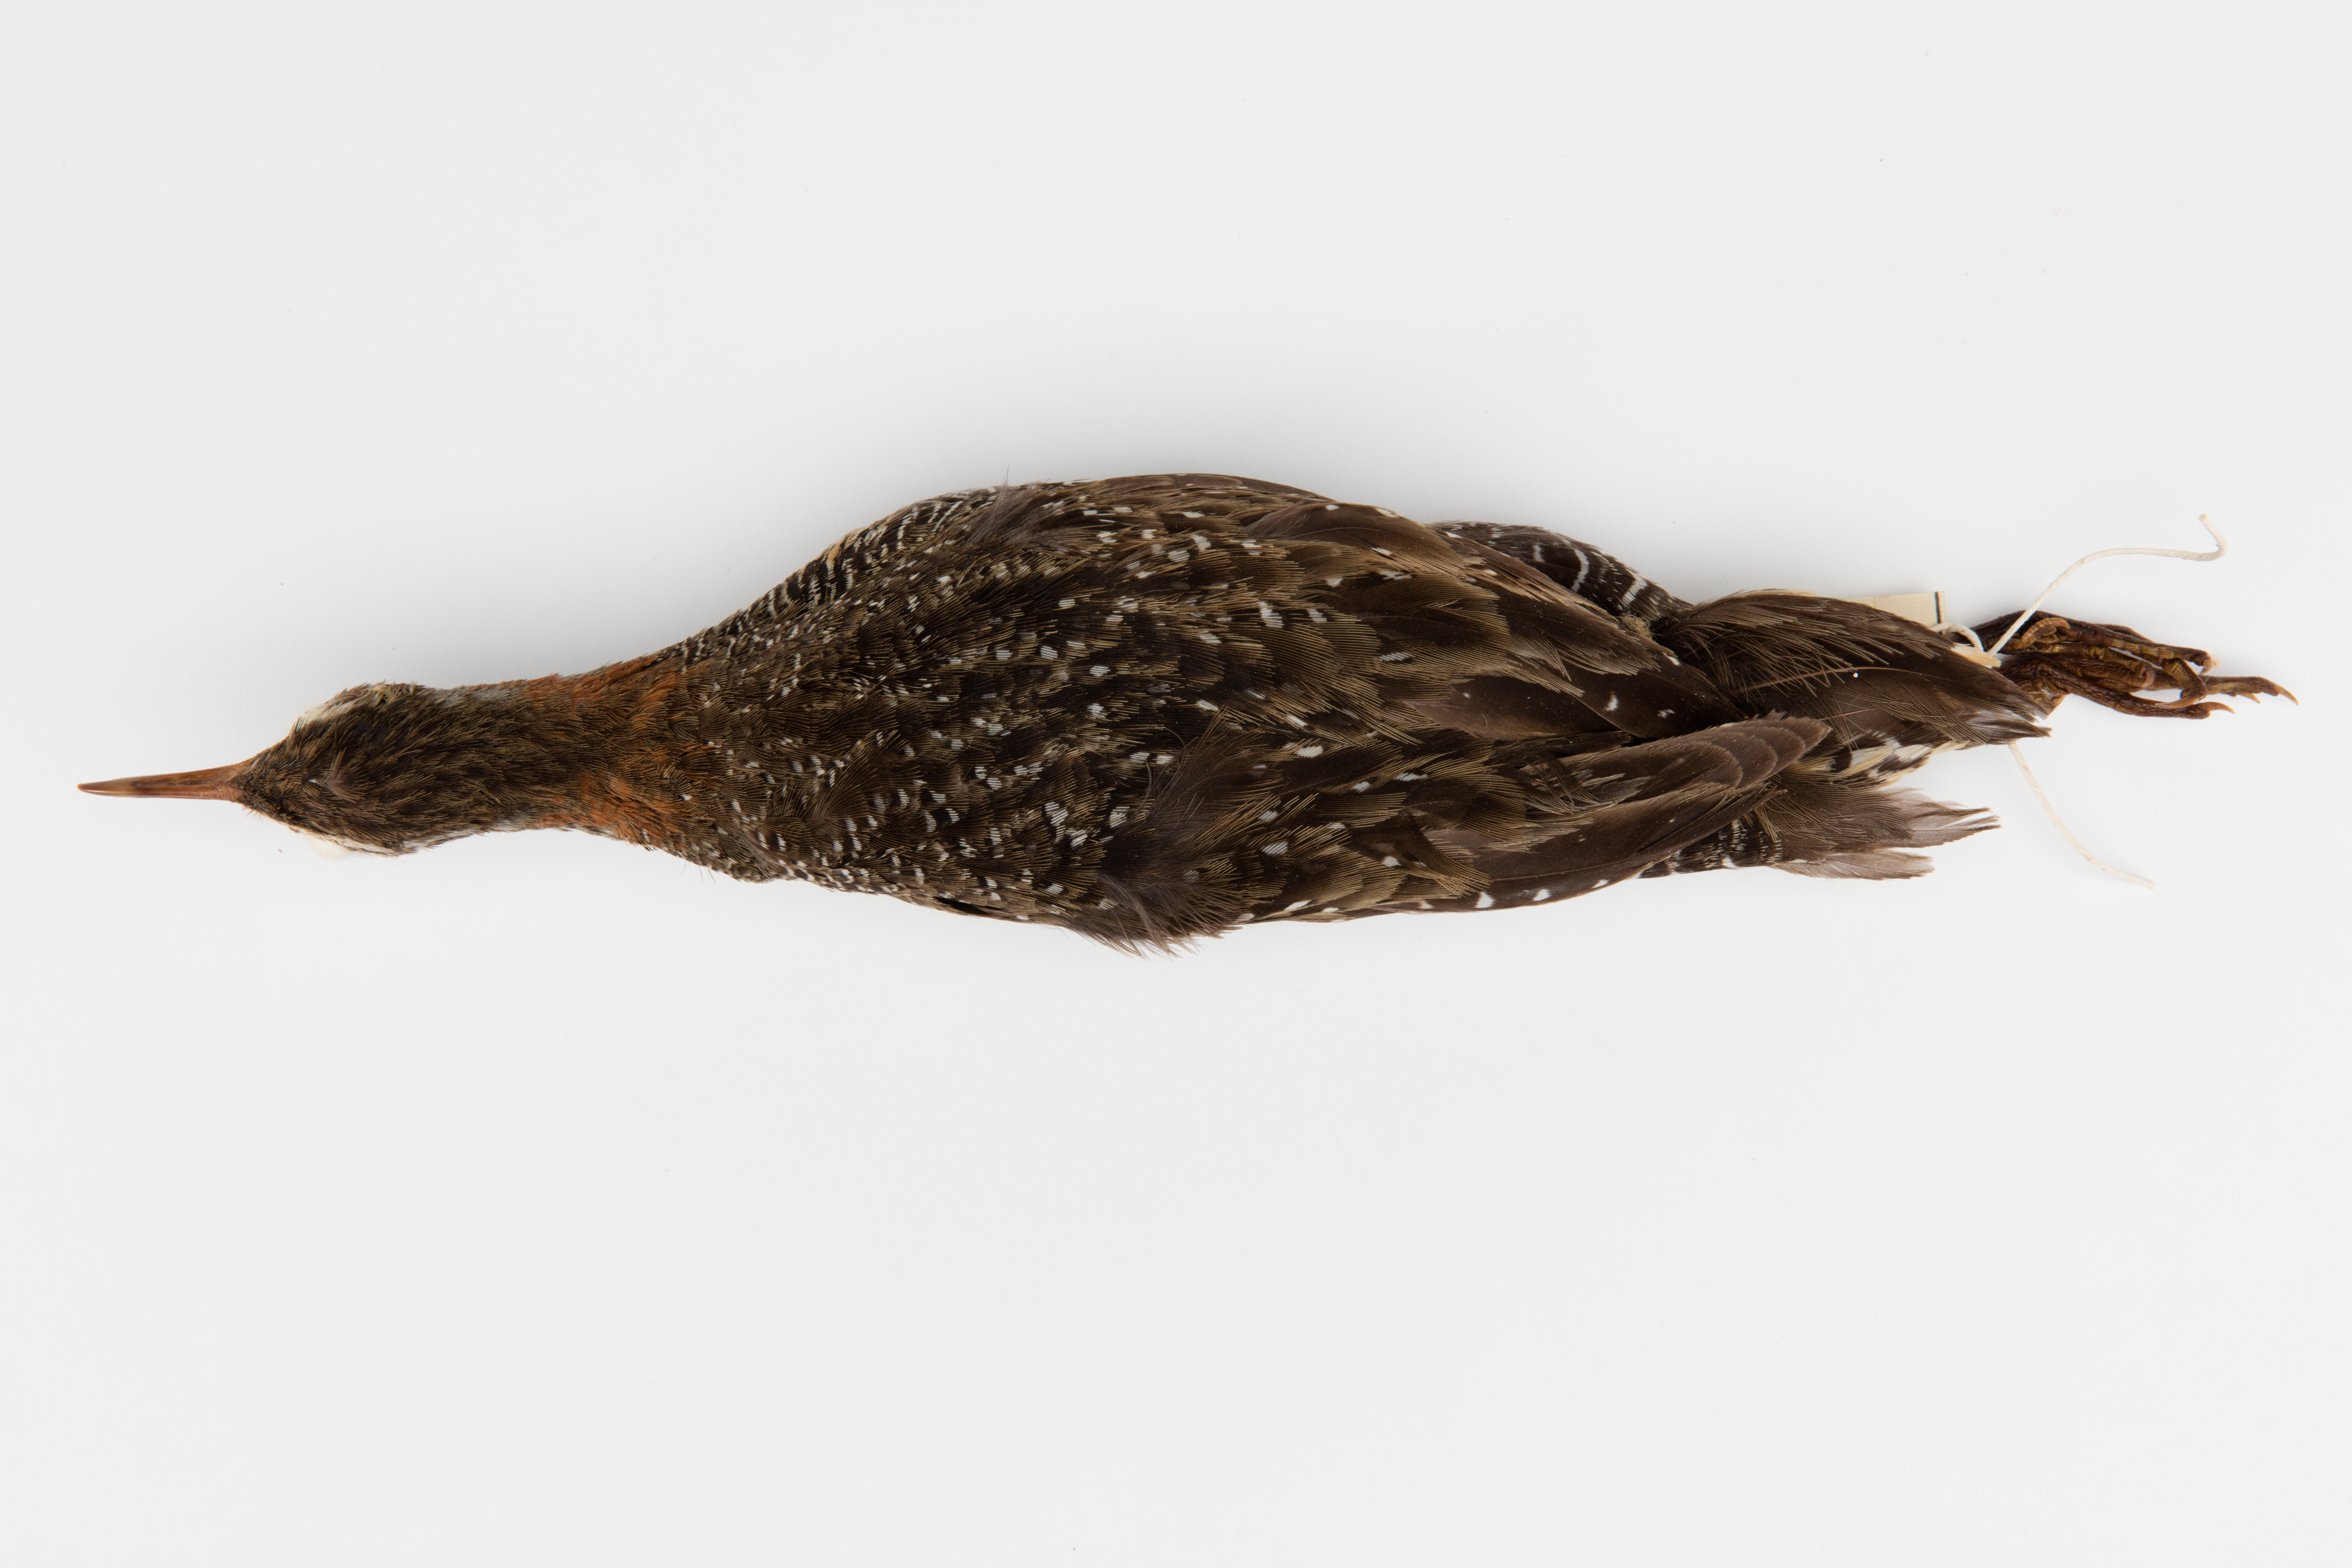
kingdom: Animalia
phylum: Chordata
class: Aves
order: Gruiformes
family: Rallidae
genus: Gallirallus
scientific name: Gallirallus philippensis
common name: Buff-banded rail
